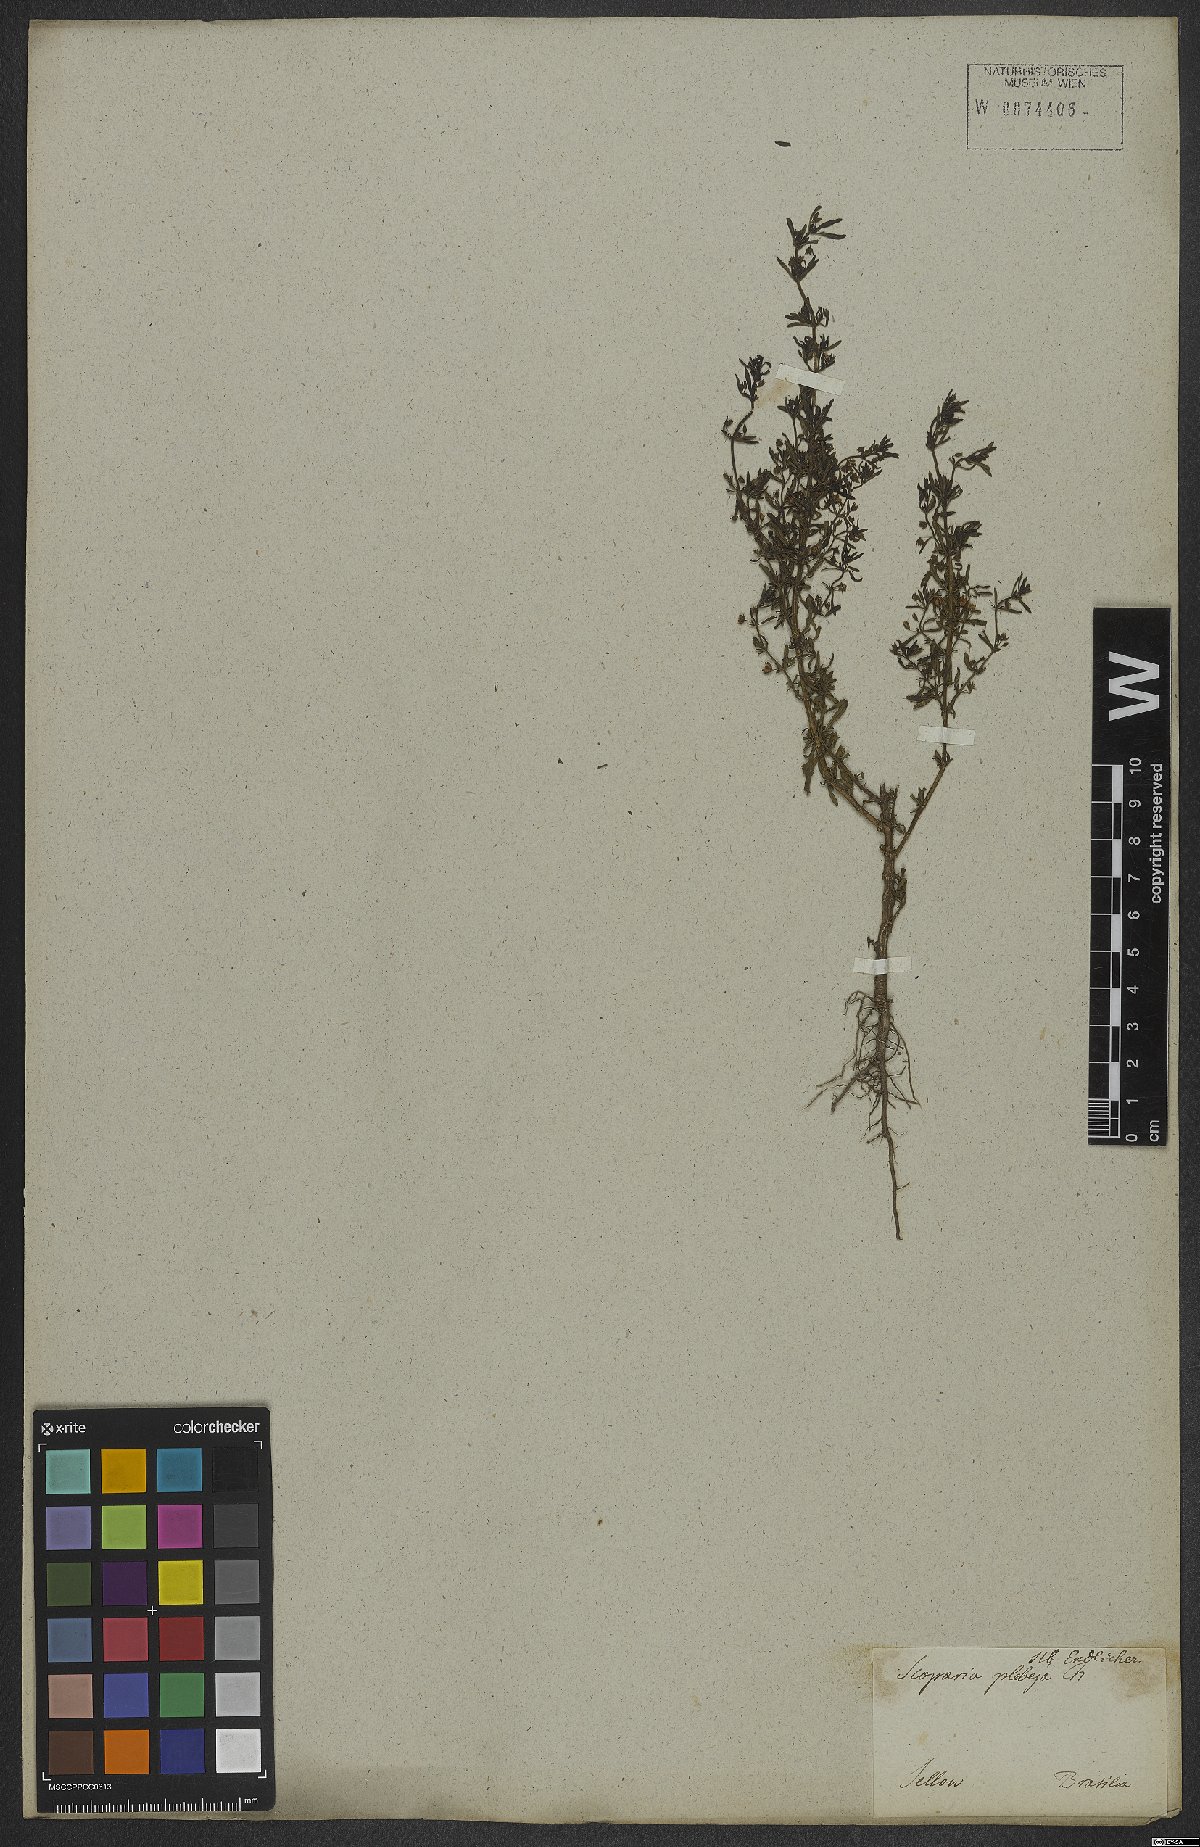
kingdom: Plantae
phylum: Tracheophyta
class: Magnoliopsida
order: Lamiales
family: Plantaginaceae
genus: Scoparia
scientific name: Scoparia ericacea
